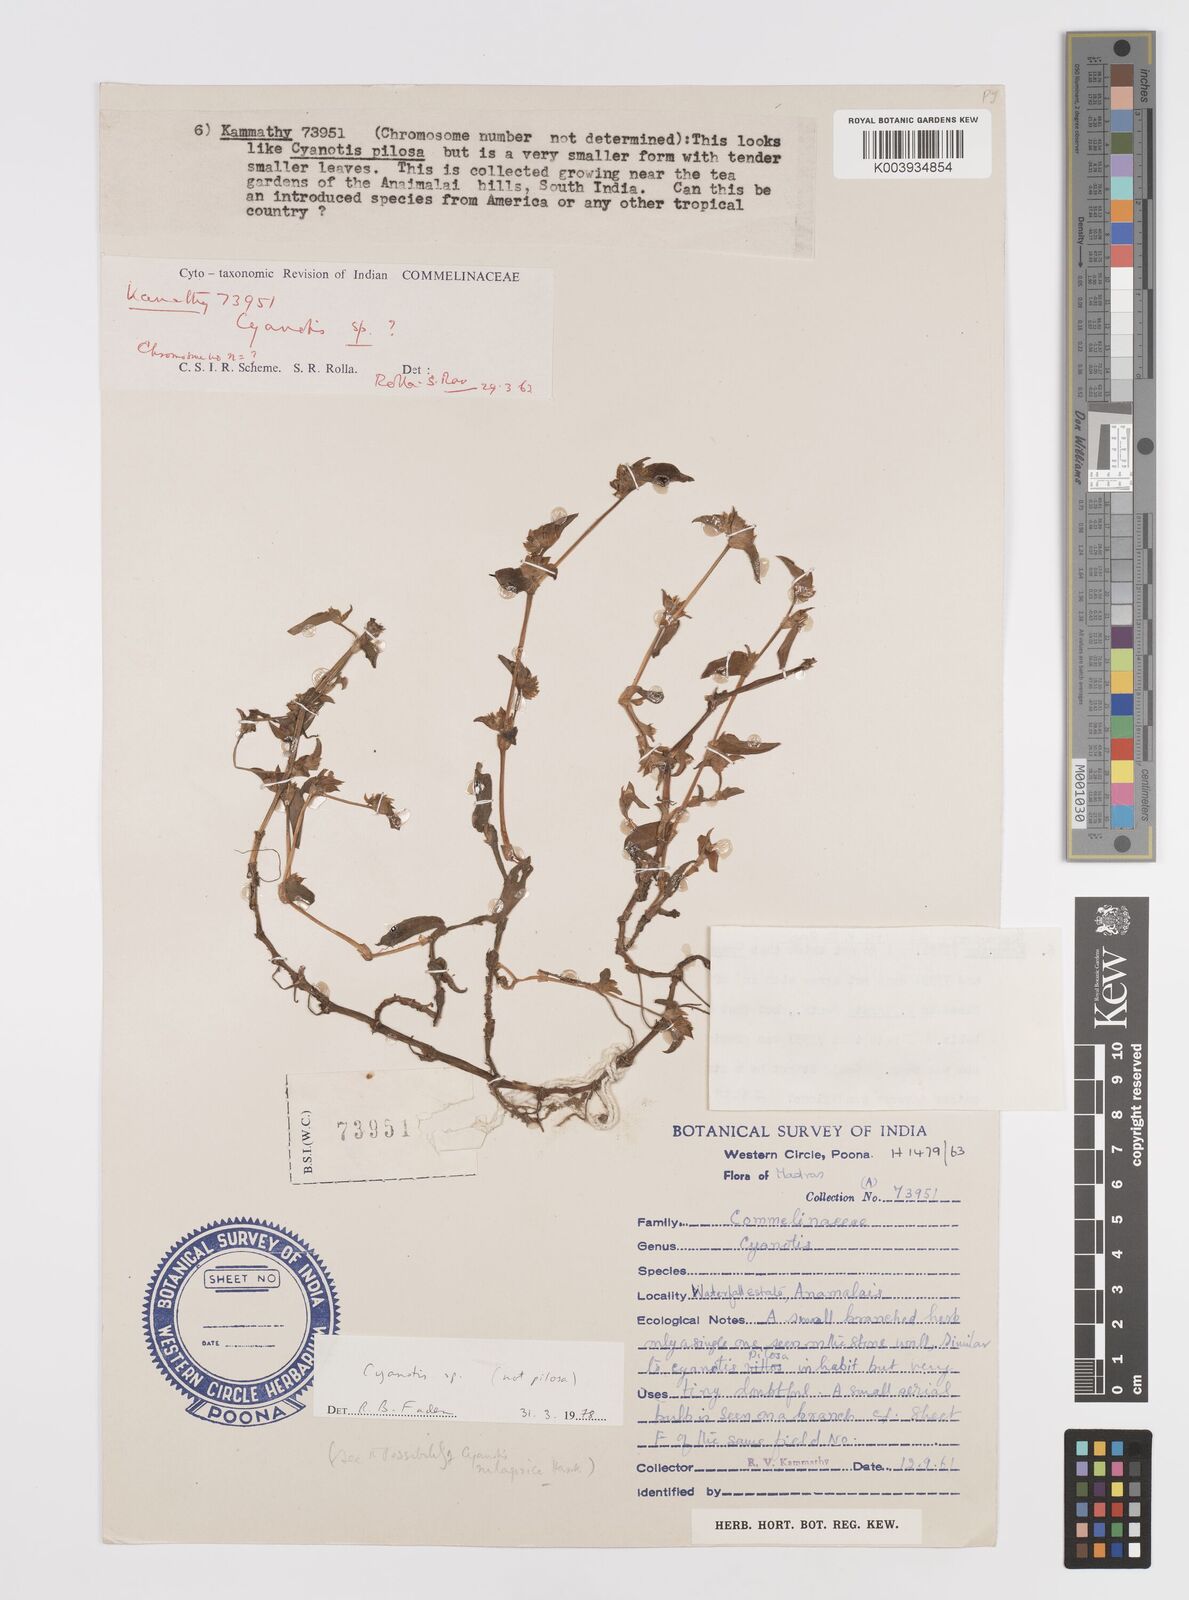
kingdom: Plantae
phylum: Tracheophyta
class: Liliopsida
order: Commelinales
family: Commelinaceae
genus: Cyanotis
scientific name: Cyanotis
